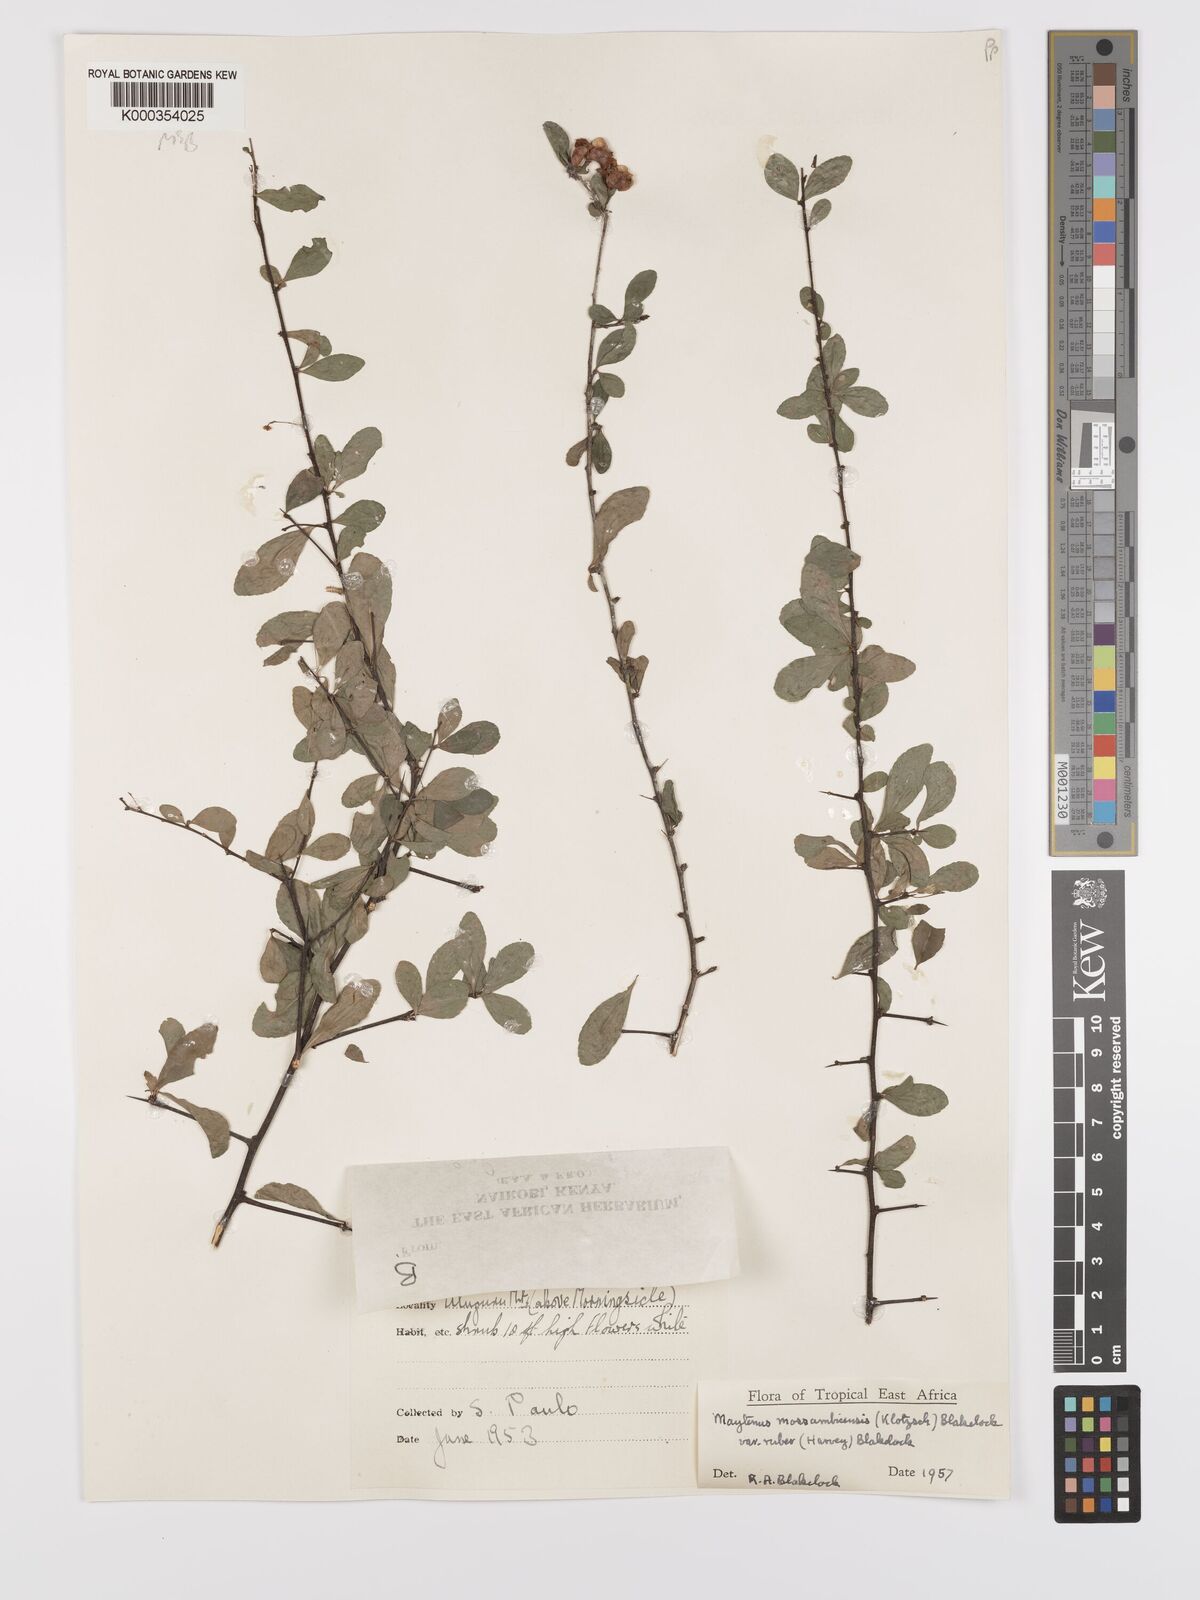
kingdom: Plantae
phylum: Tracheophyta
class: Magnoliopsida
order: Celastrales
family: Celastraceae
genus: Gymnosporia
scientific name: Gymnosporia mossambicensis
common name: Black forest spike-thorn
